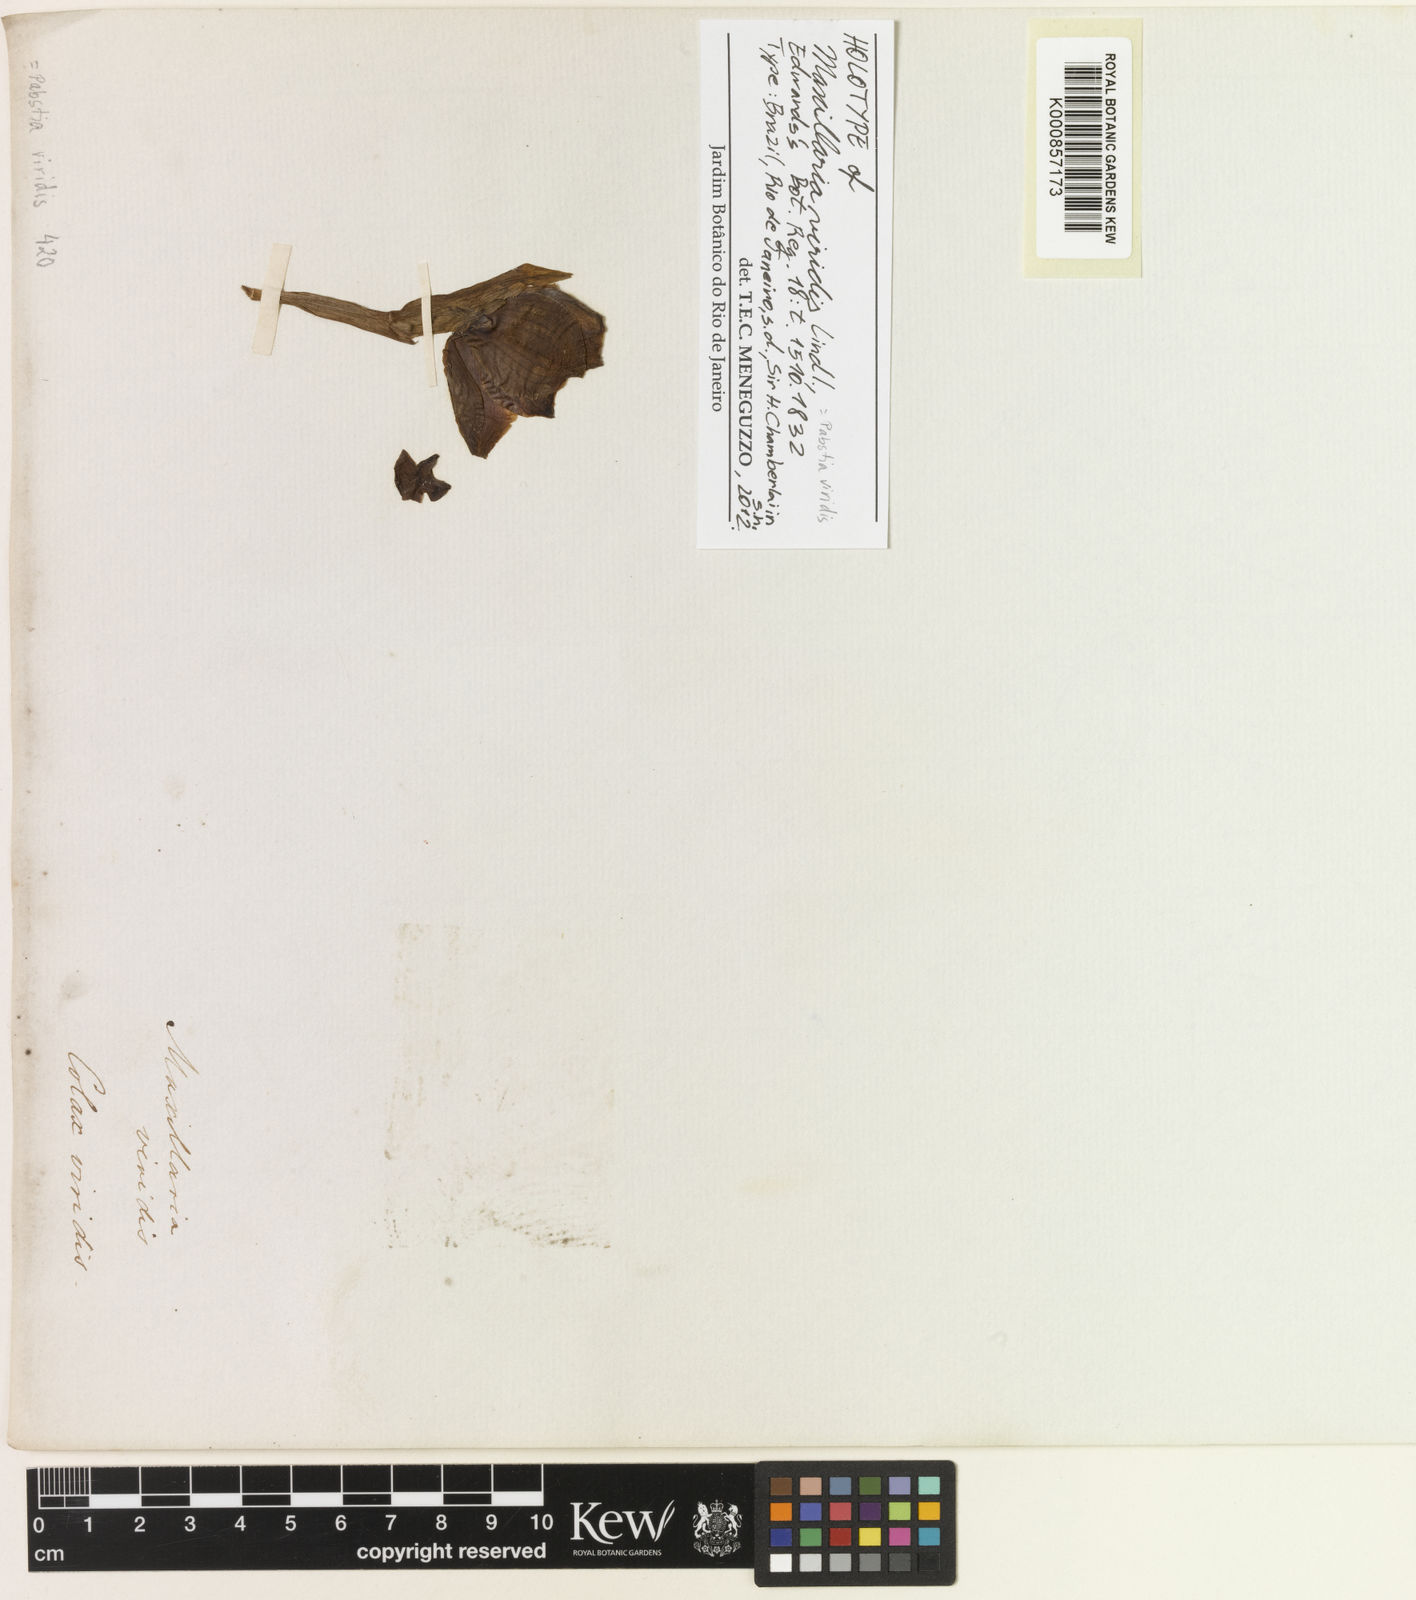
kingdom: Plantae
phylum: Tracheophyta
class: Liliopsida
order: Asparagales
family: Orchidaceae
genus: Pabstia
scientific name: Pabstia viridis
